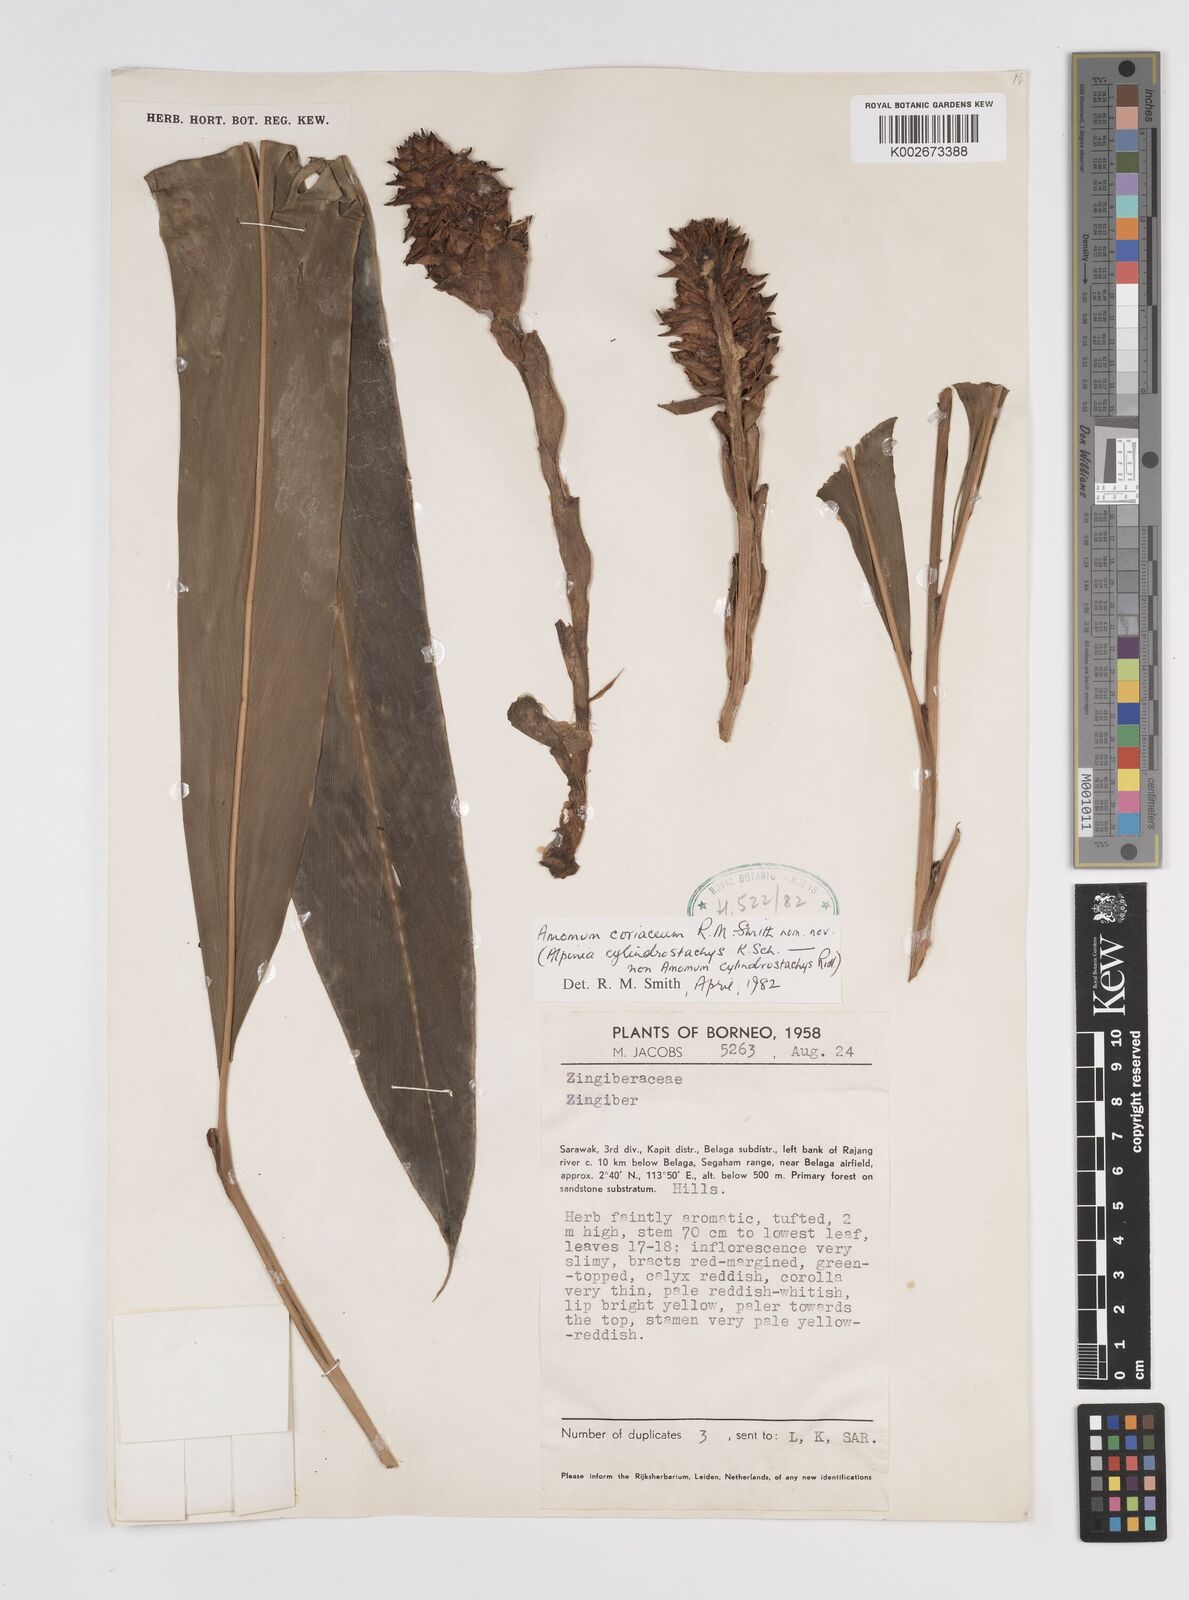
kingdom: Plantae
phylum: Tracheophyta
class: Liliopsida
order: Zingiberales
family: Zingiberaceae
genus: Conamomum
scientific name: Conamomum cylindrostachys
